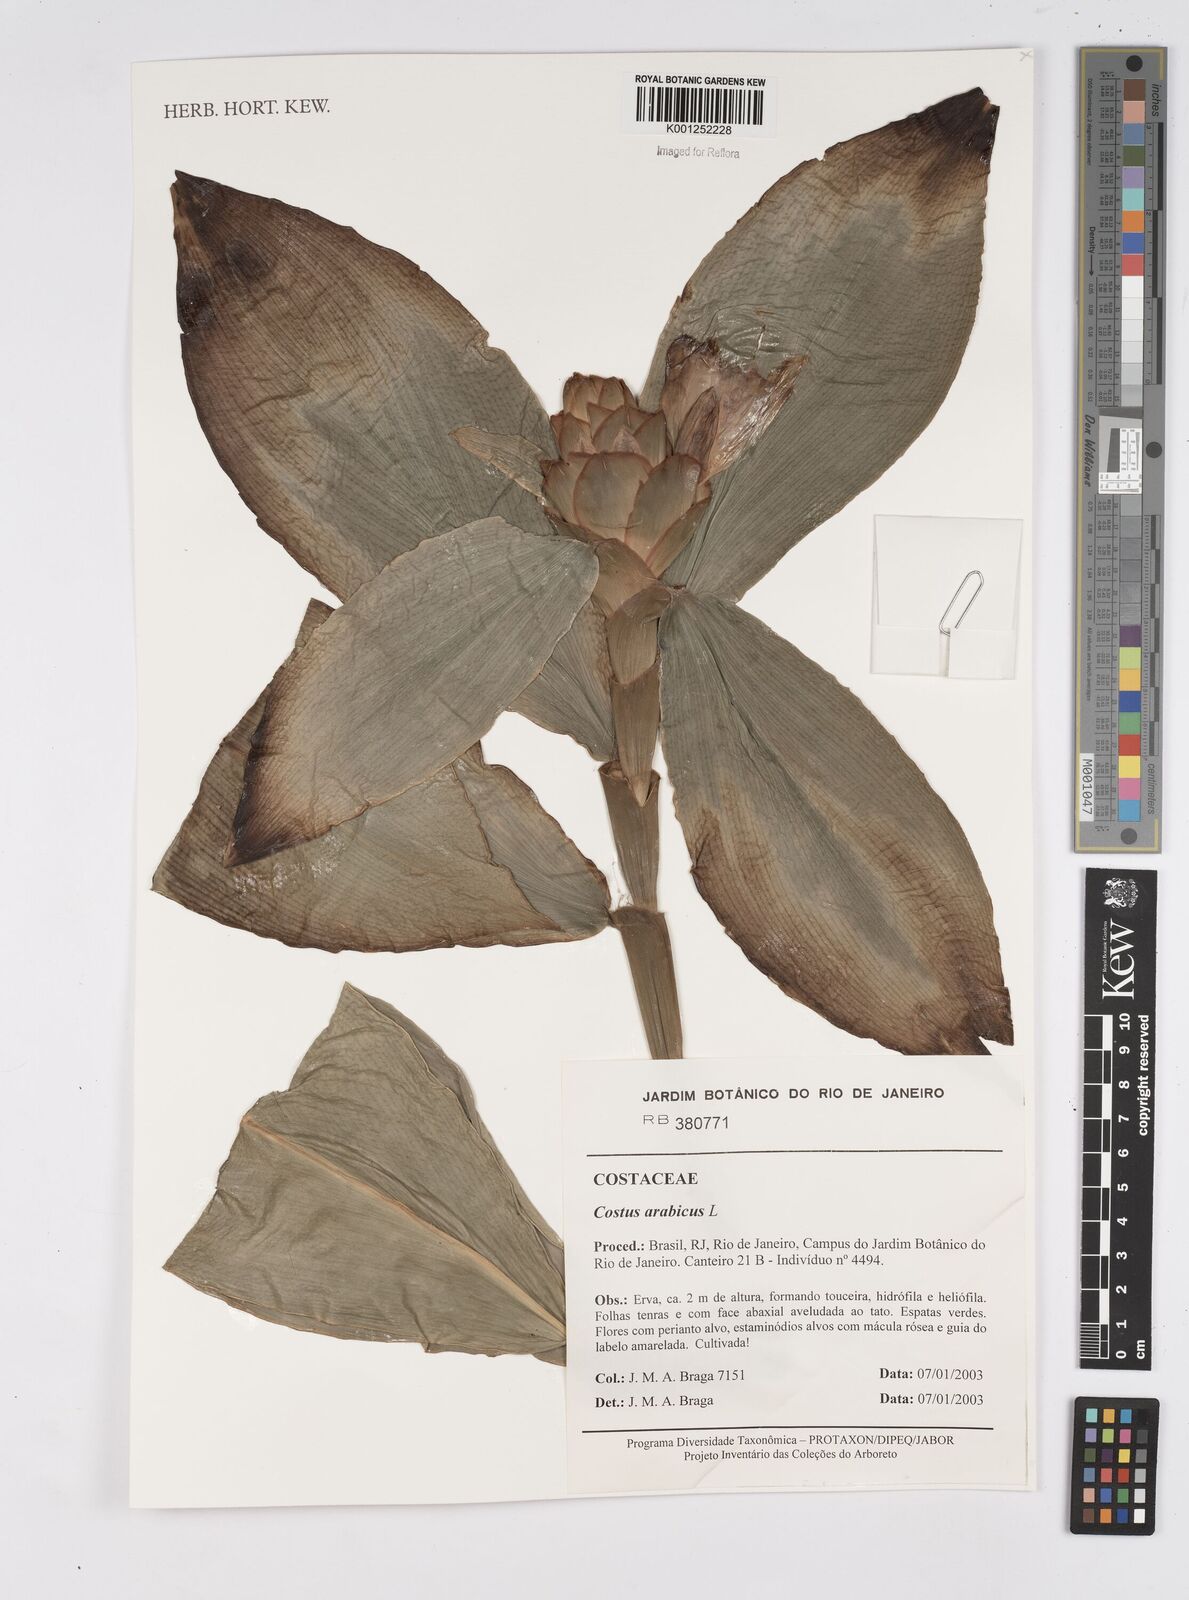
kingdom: Plantae
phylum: Tracheophyta
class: Liliopsida
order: Zingiberales
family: Costaceae
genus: Costus
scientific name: Costus arabicus
